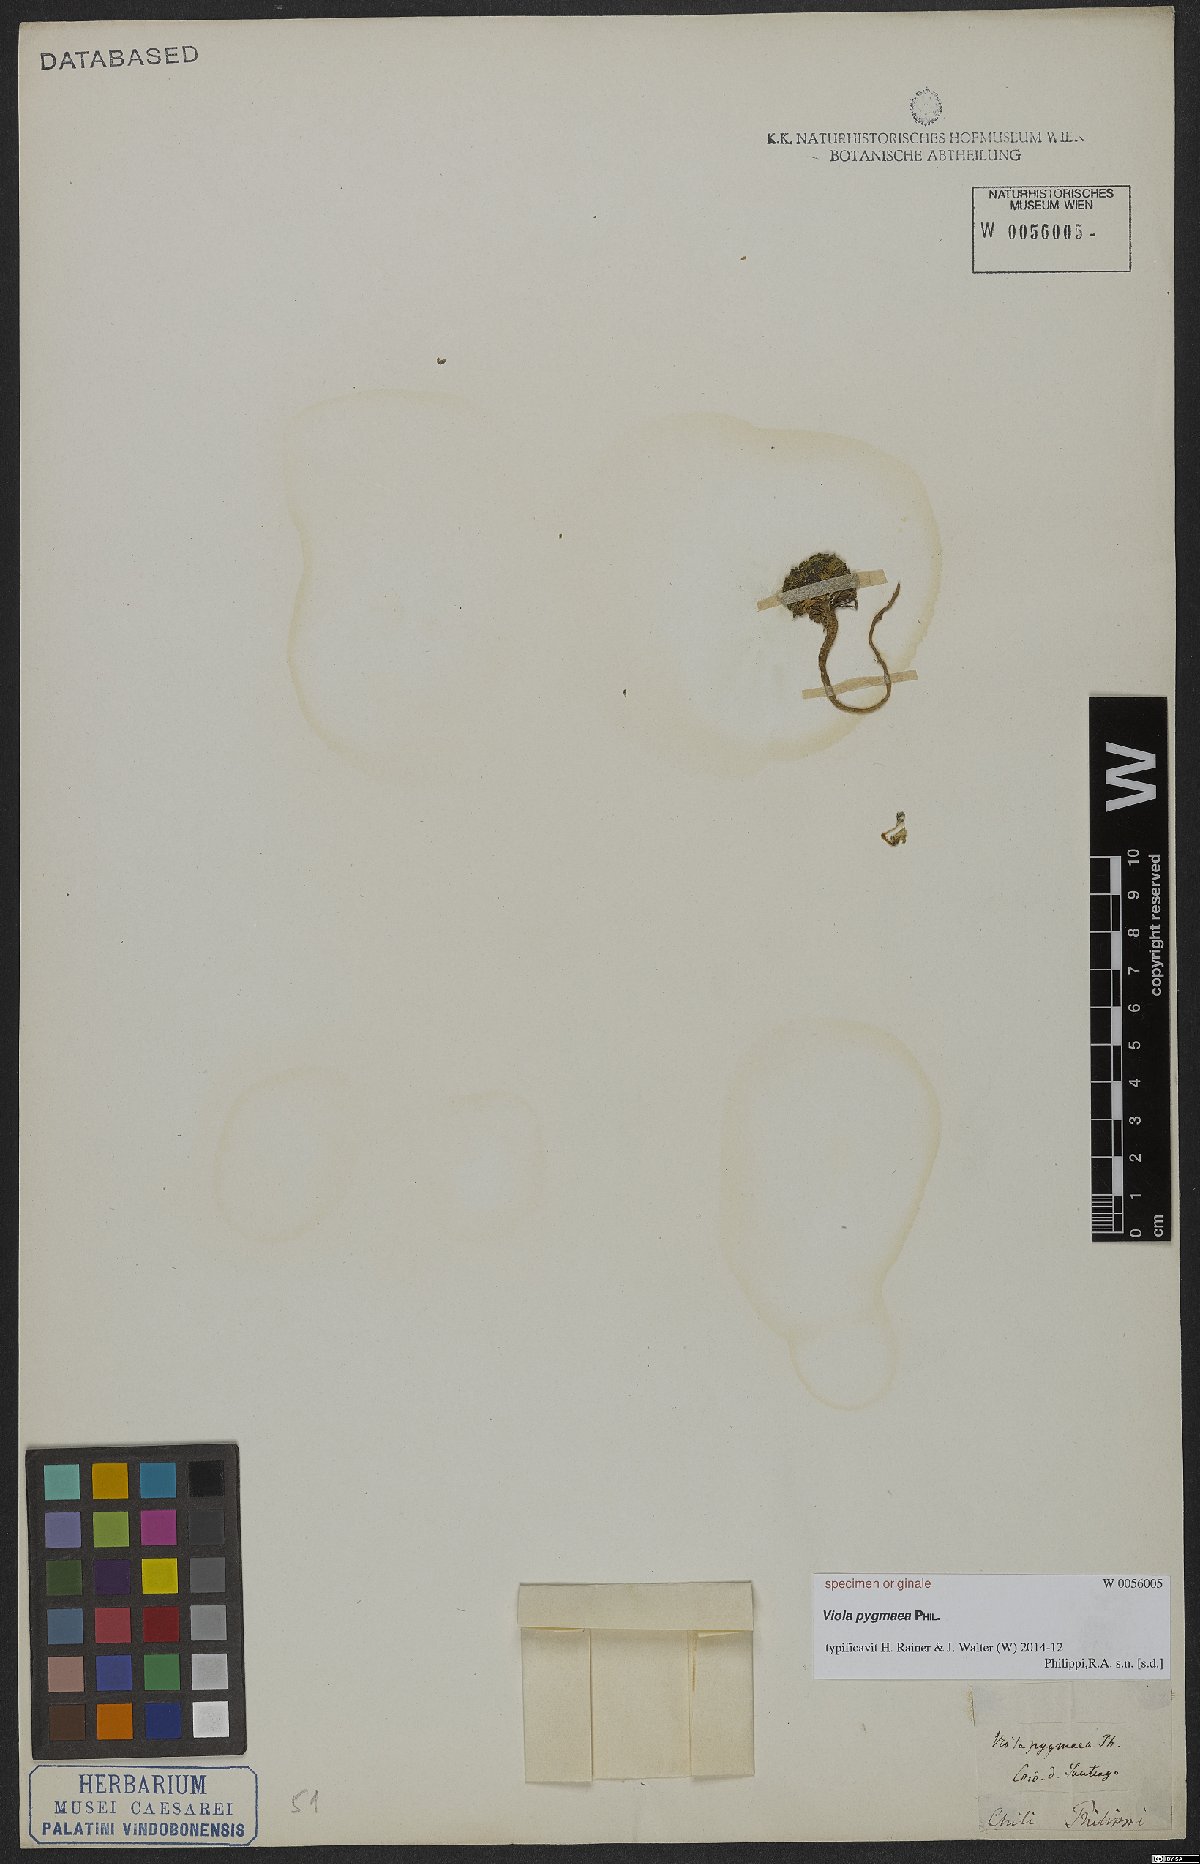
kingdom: Plantae
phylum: Tracheophyta
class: Magnoliopsida
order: Malpighiales
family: Violaceae
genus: Viola
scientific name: Viola pygmaea
